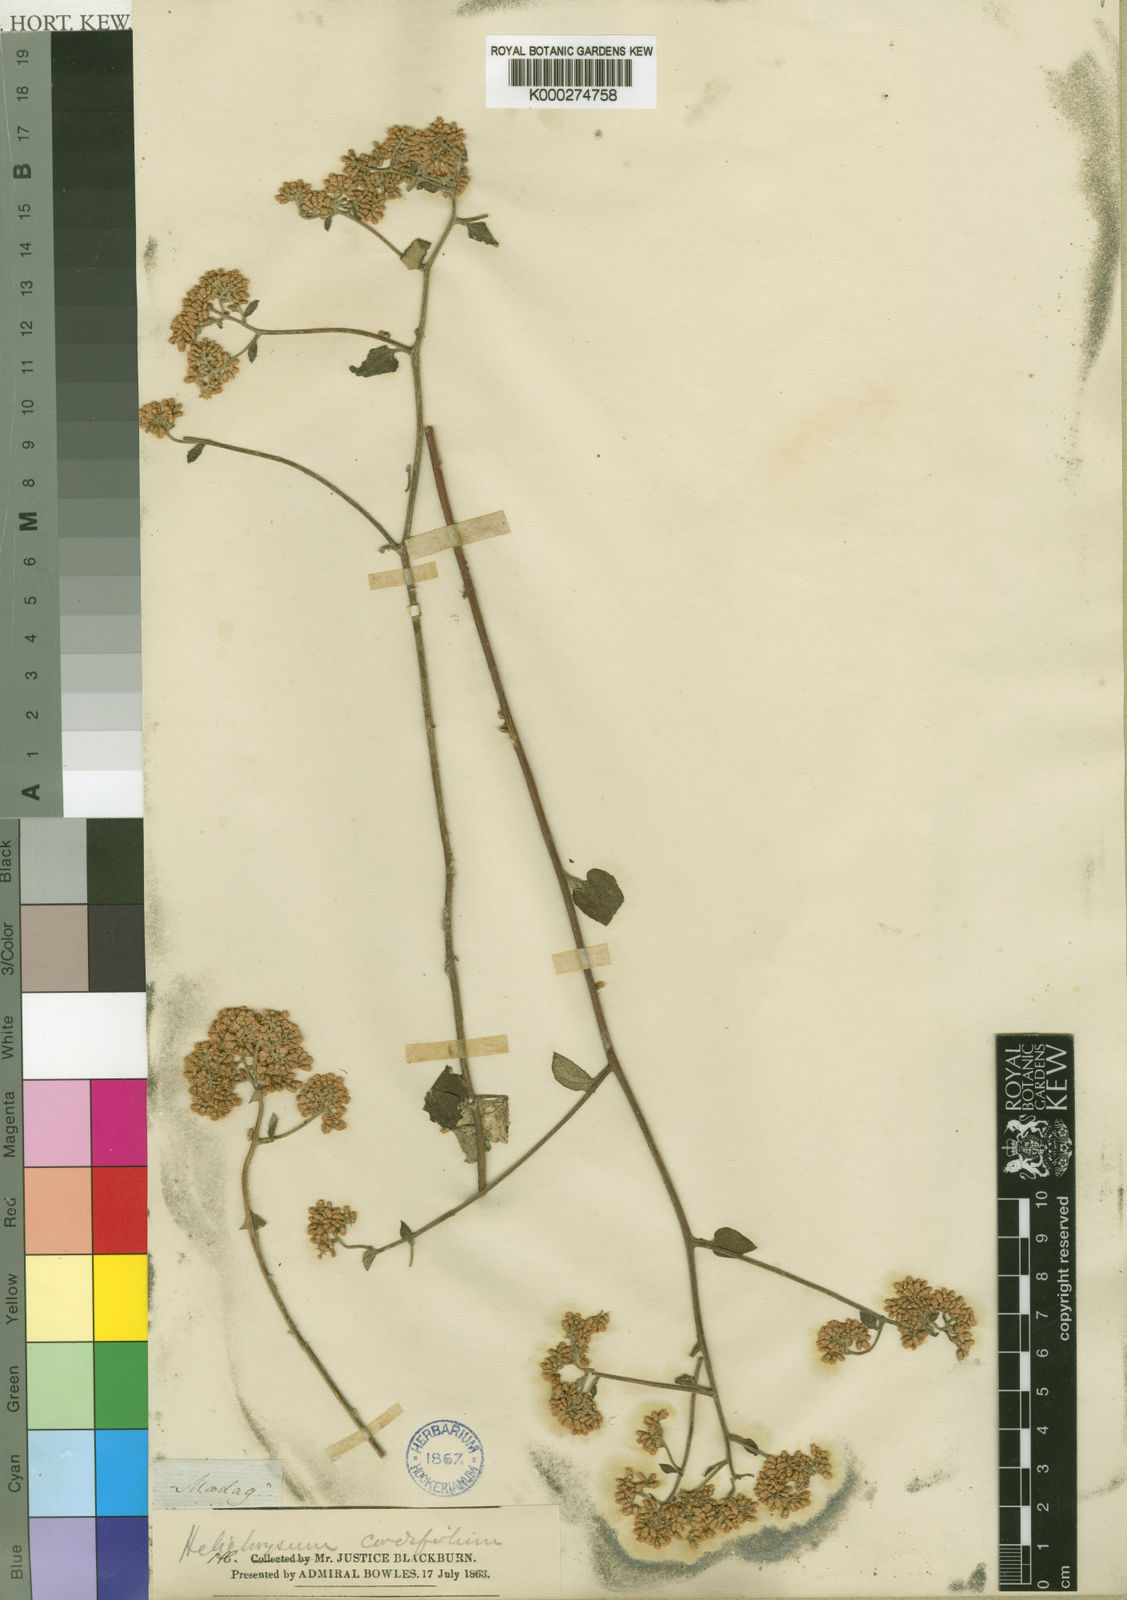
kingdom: Plantae
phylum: Tracheophyta
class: Magnoliopsida
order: Asterales
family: Asteraceae
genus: Helichrysum
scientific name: Helichrysum cordifolium
